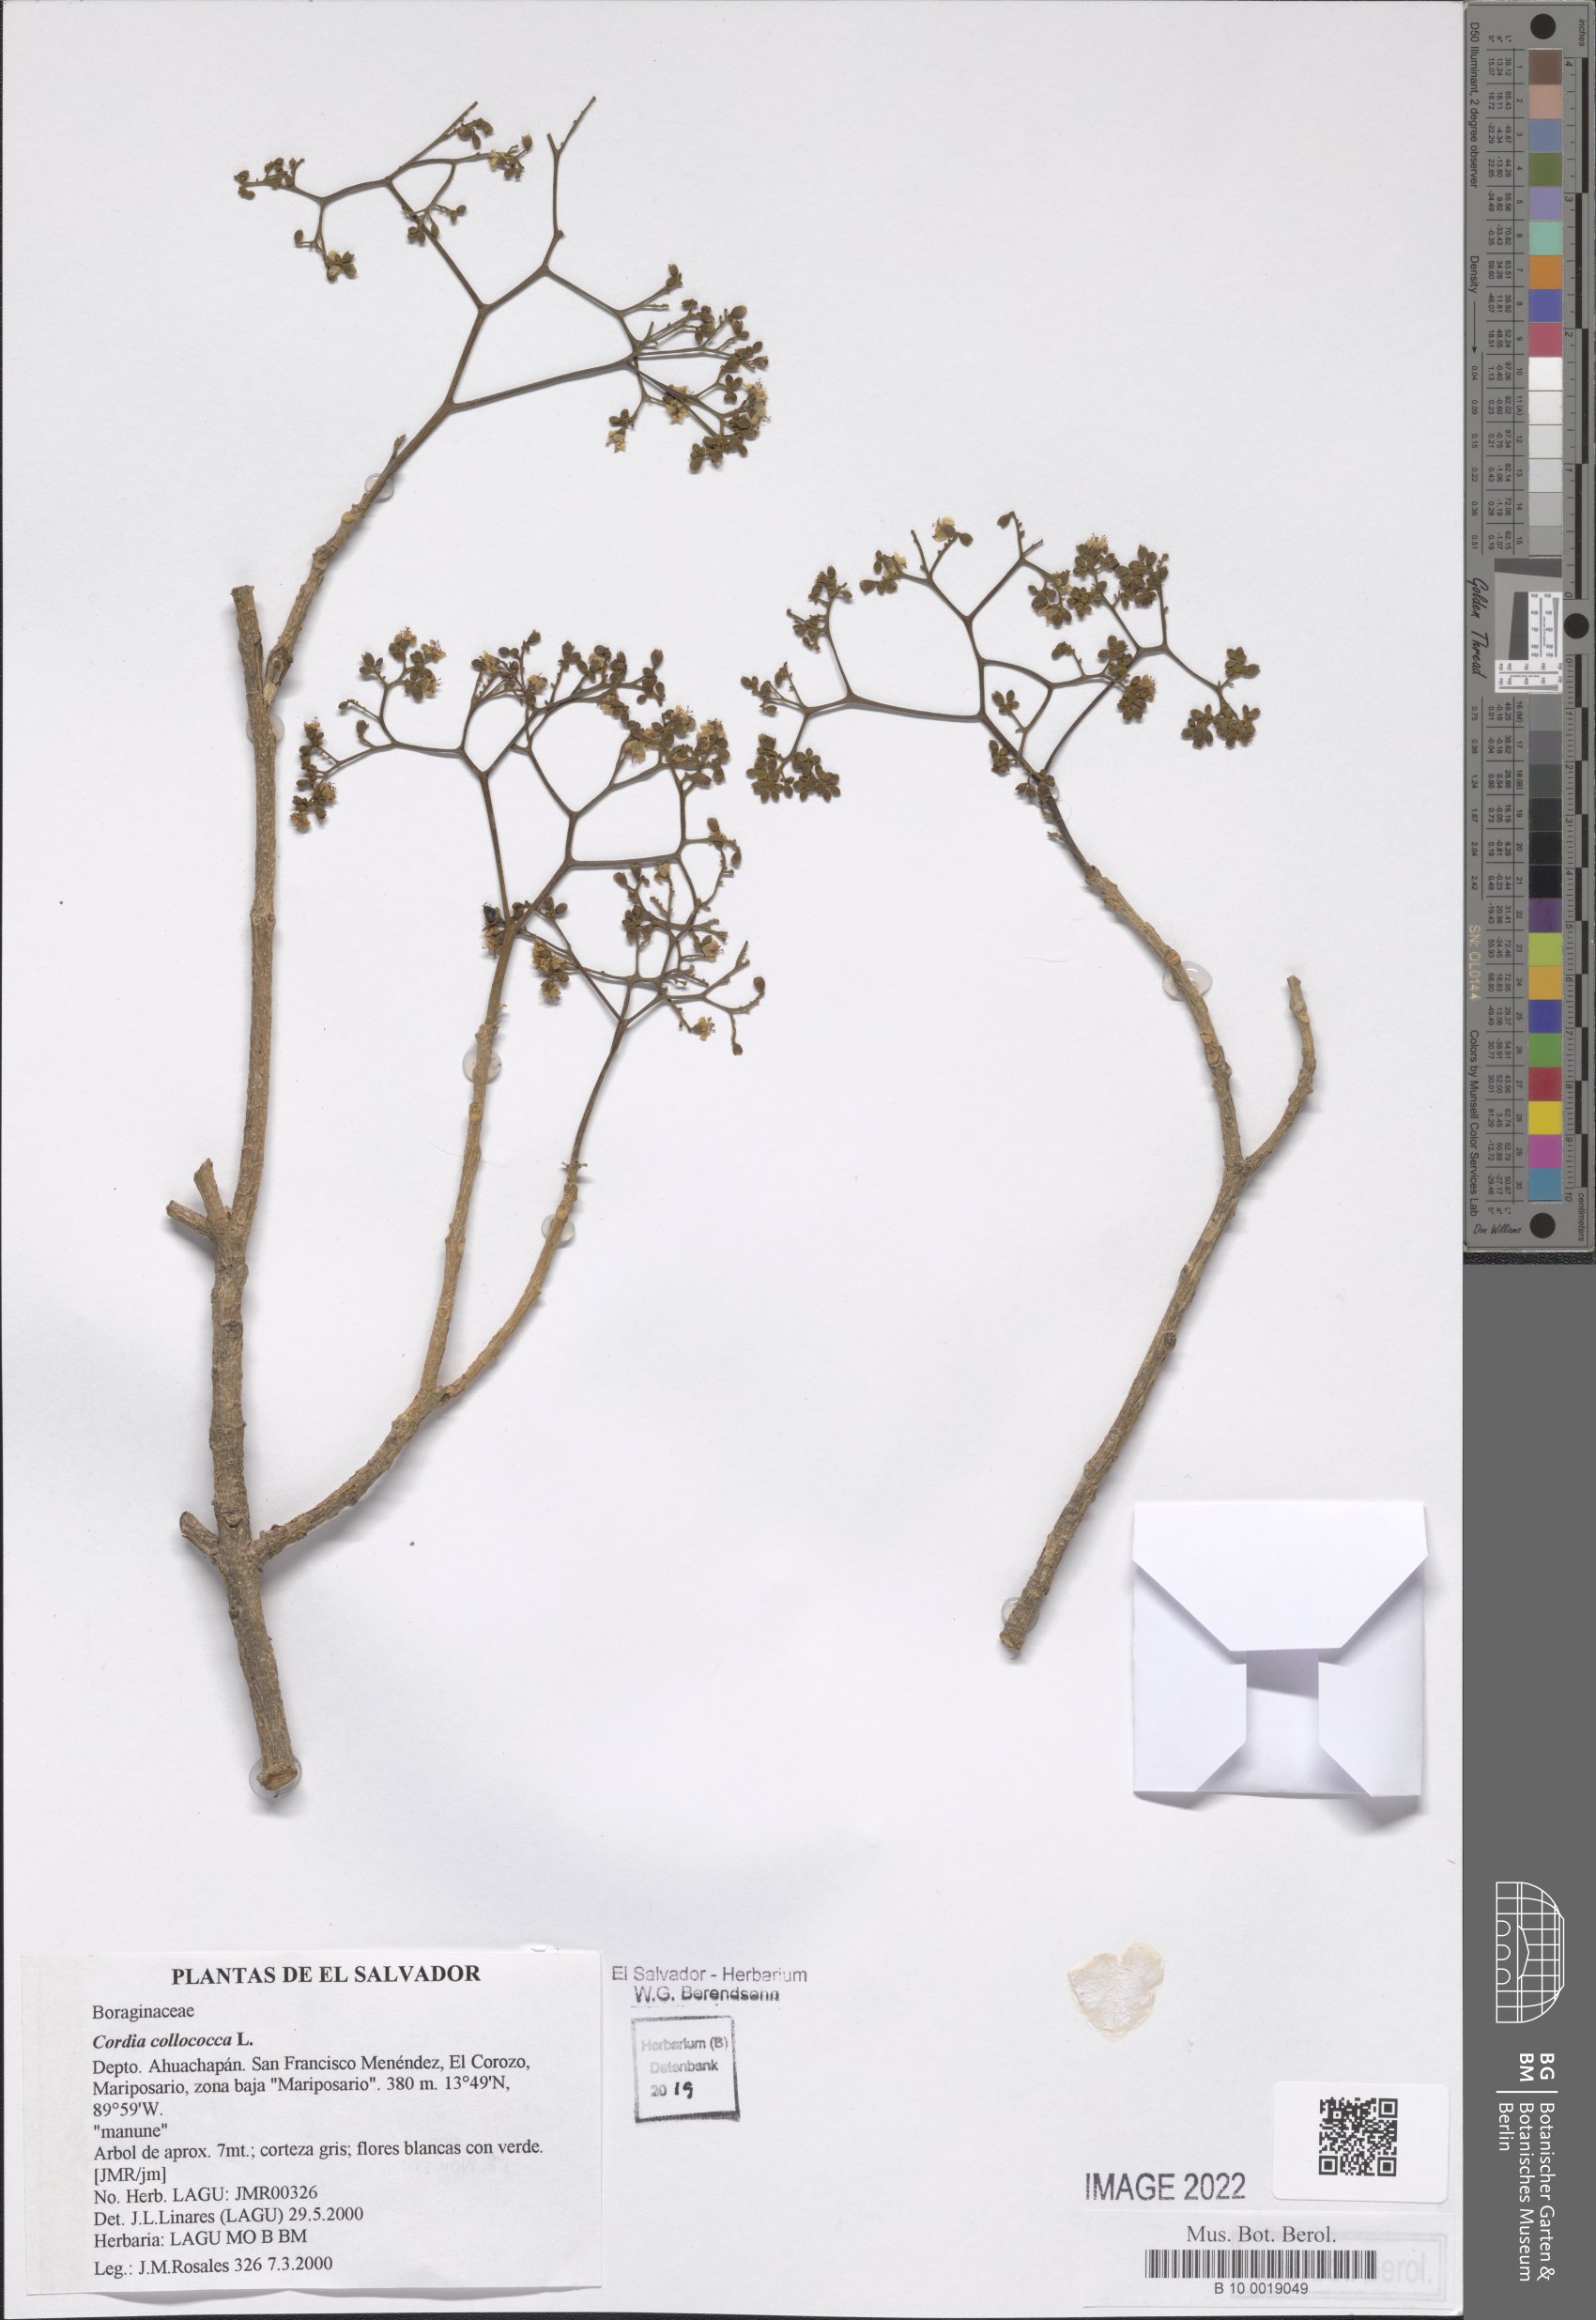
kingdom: Plantae
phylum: Tracheophyta
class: Magnoliopsida
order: Boraginales
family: Cordiaceae
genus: Cordia
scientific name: Cordia collococca
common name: Clammy cherry
